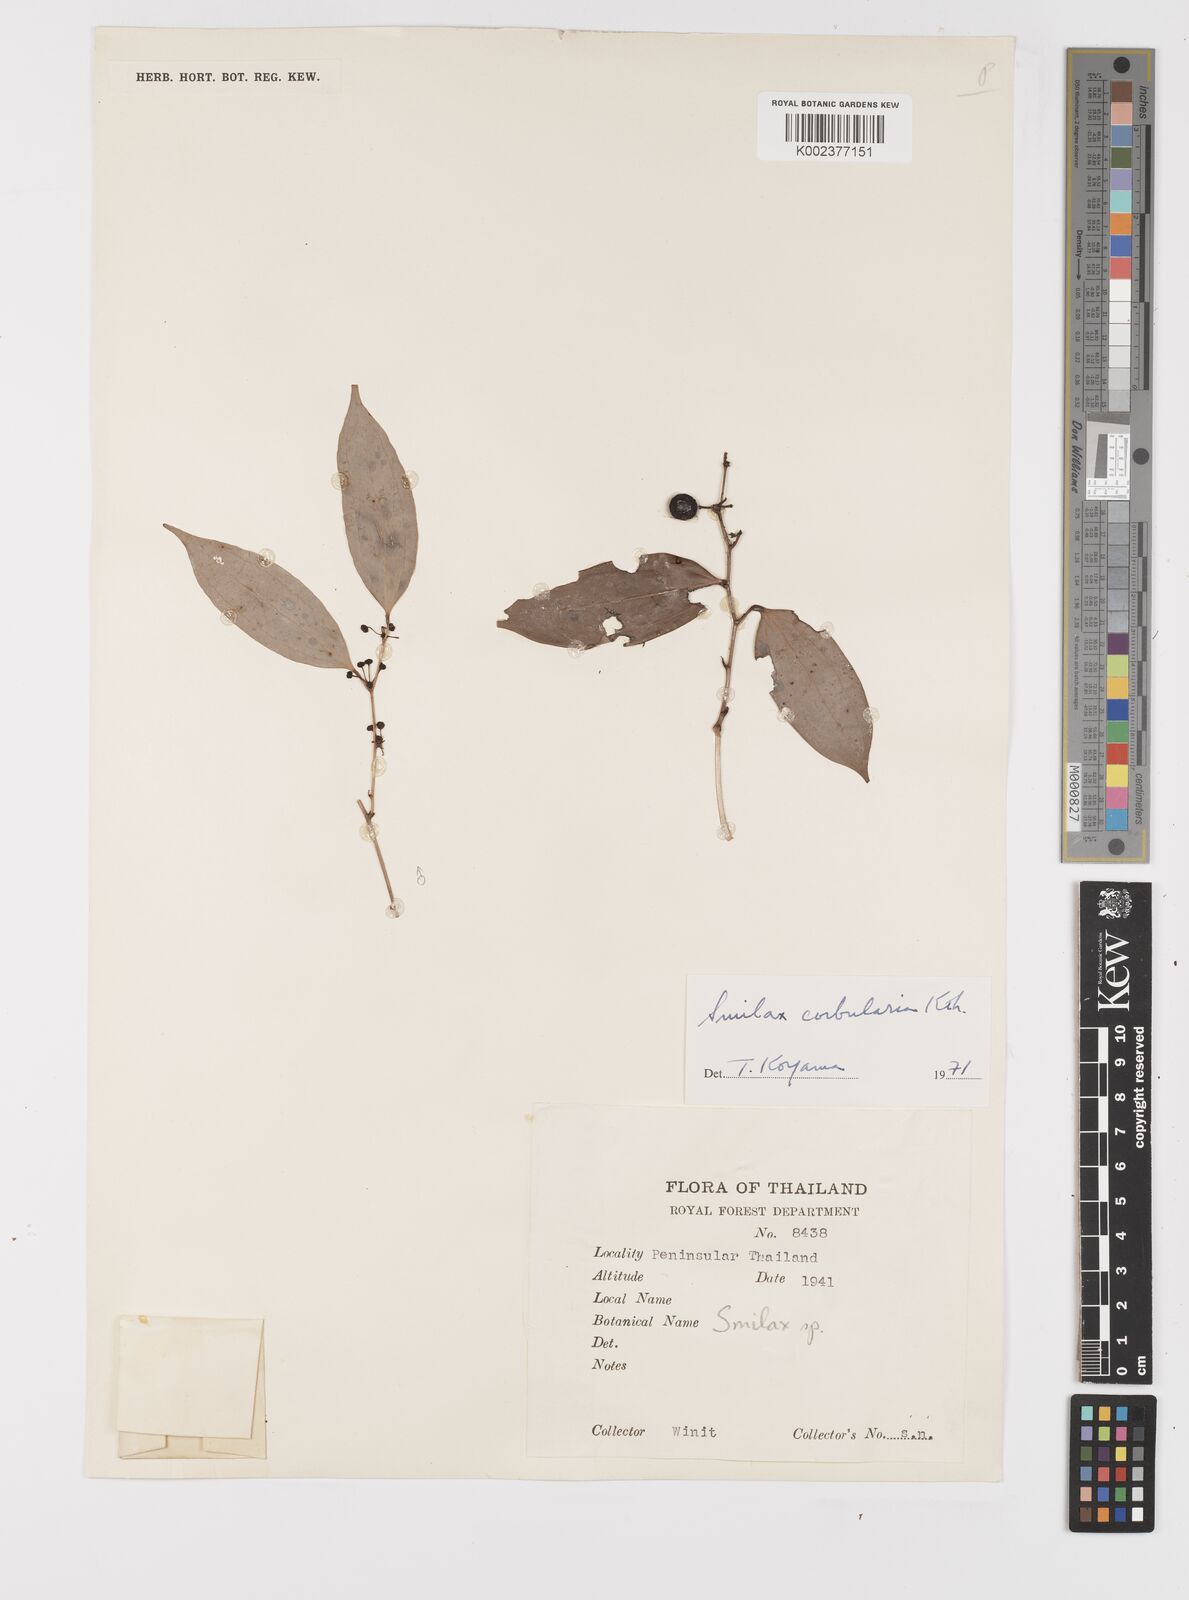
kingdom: Plantae
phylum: Tracheophyta
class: Liliopsida
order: Liliales
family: Smilacaceae
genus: Smilax
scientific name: Smilax calophylla
